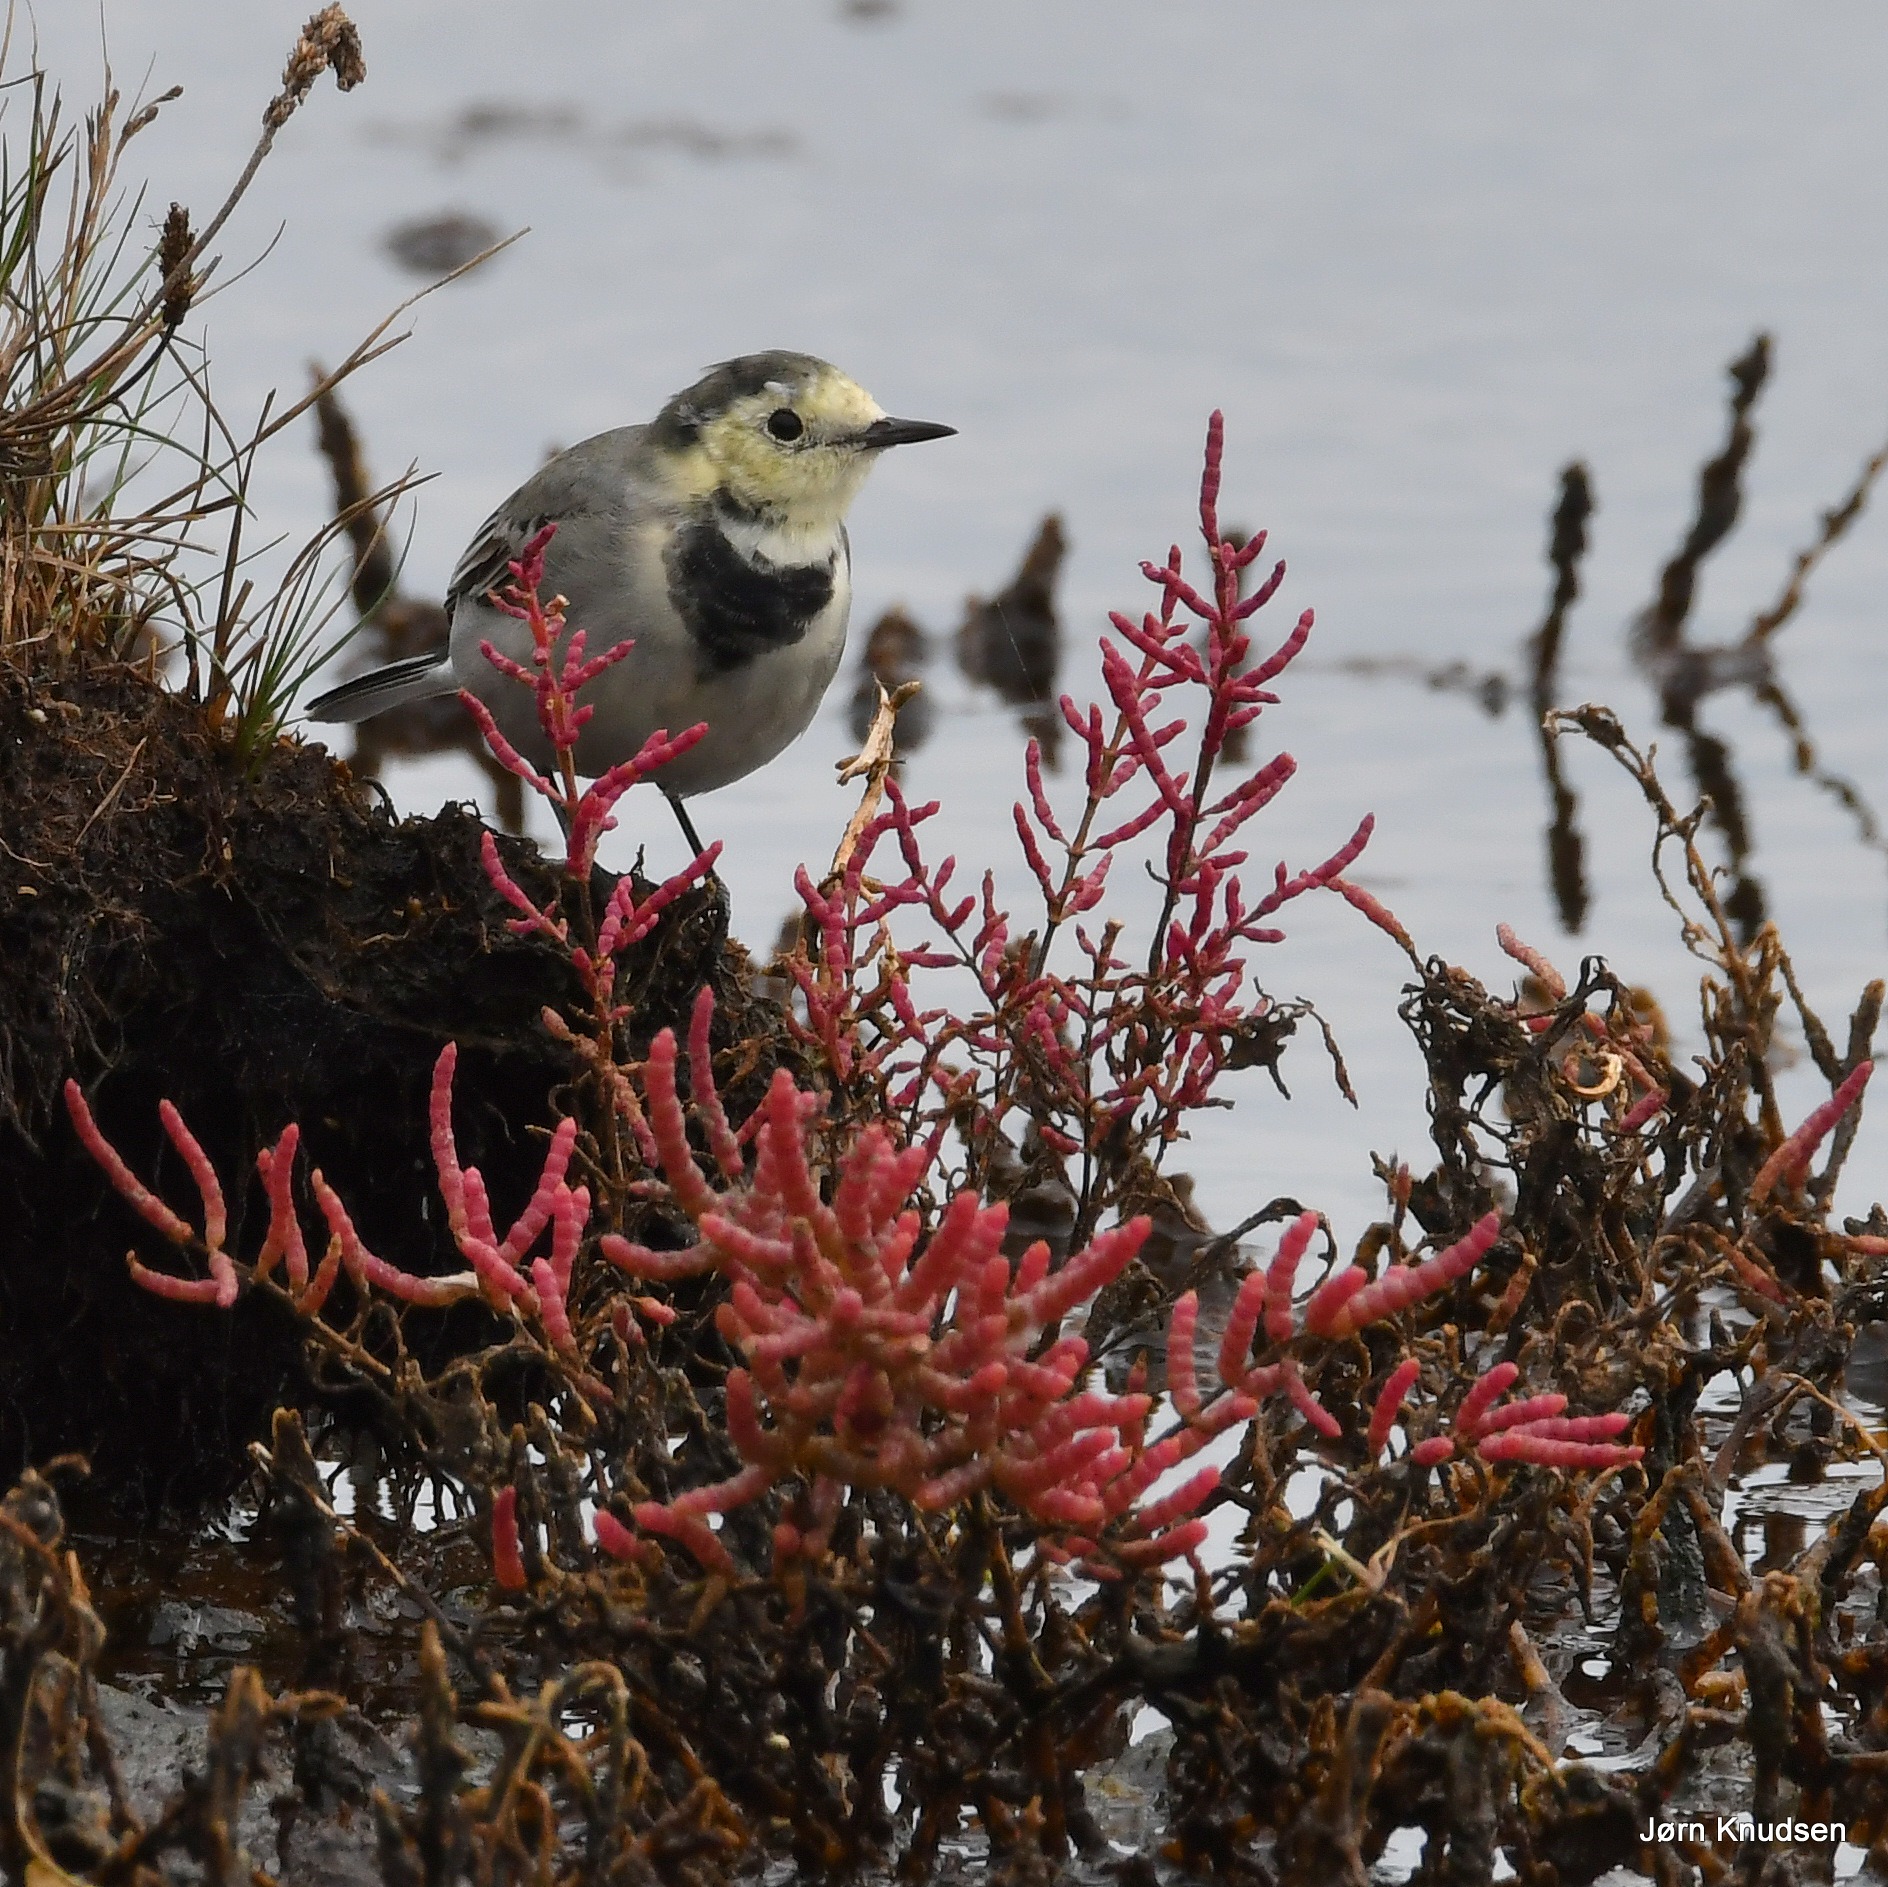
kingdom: Animalia
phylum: Chordata
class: Aves
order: Passeriformes
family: Motacillidae
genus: Motacilla
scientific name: Motacilla alba
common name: Hvid vipstjert
